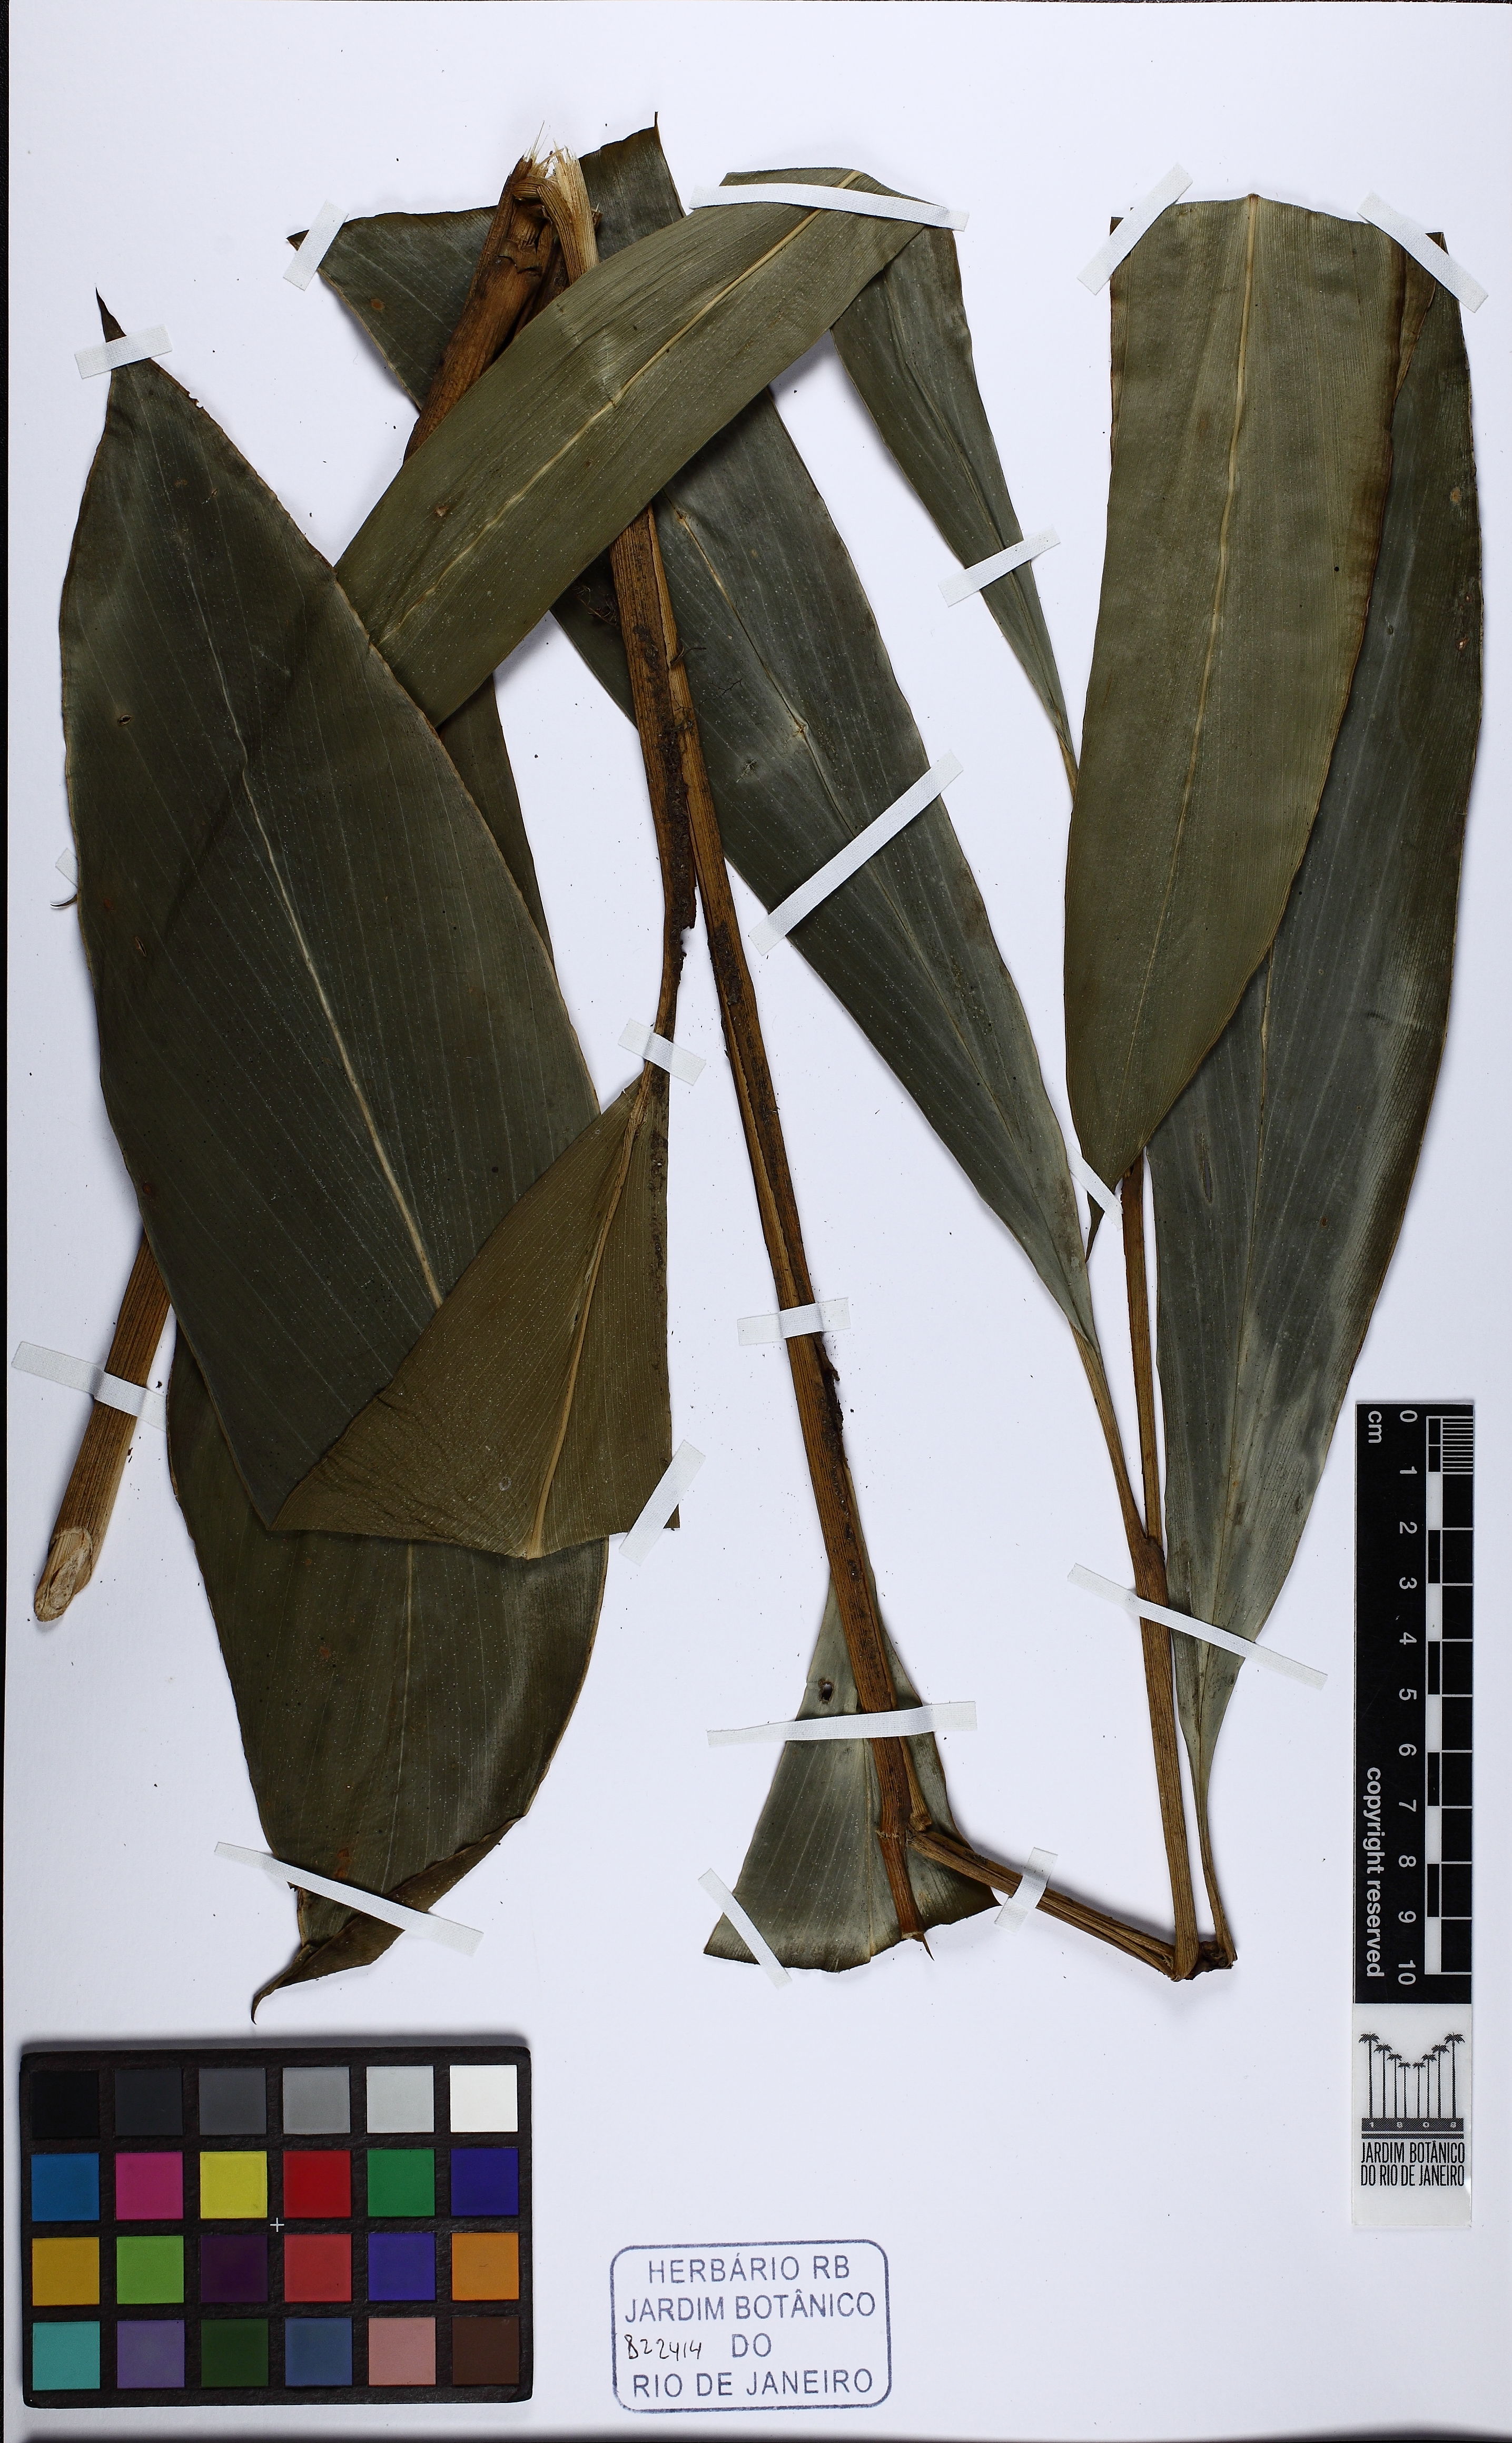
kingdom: Plantae
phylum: Tracheophyta
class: Liliopsida
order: Zingiberales
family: Zingiberaceae
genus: Renealmia
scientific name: Renealmia chrysotricha
